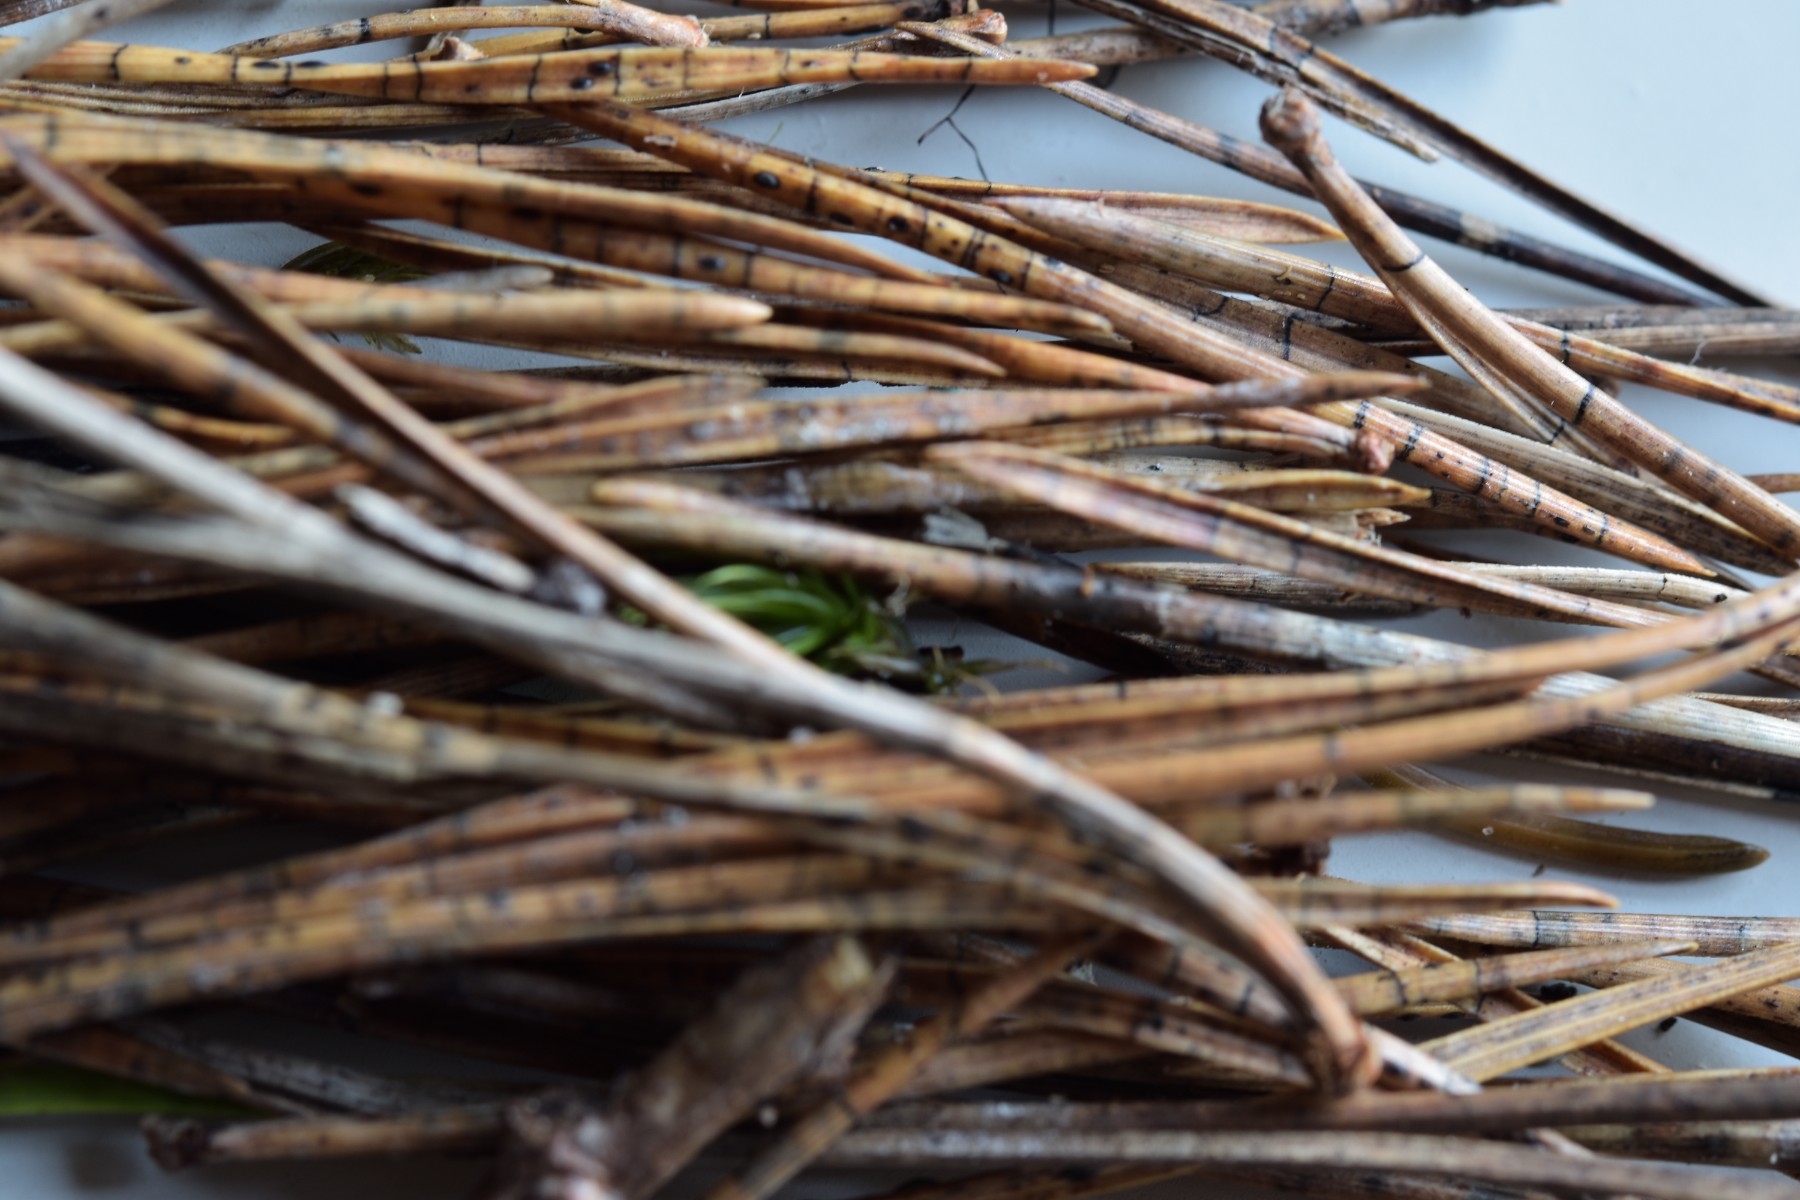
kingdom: Fungi
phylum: Ascomycota
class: Leotiomycetes
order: Rhytismatales
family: Rhytismataceae
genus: Lophodermium
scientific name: Lophodermium pinastri
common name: fyrre-fureplet
